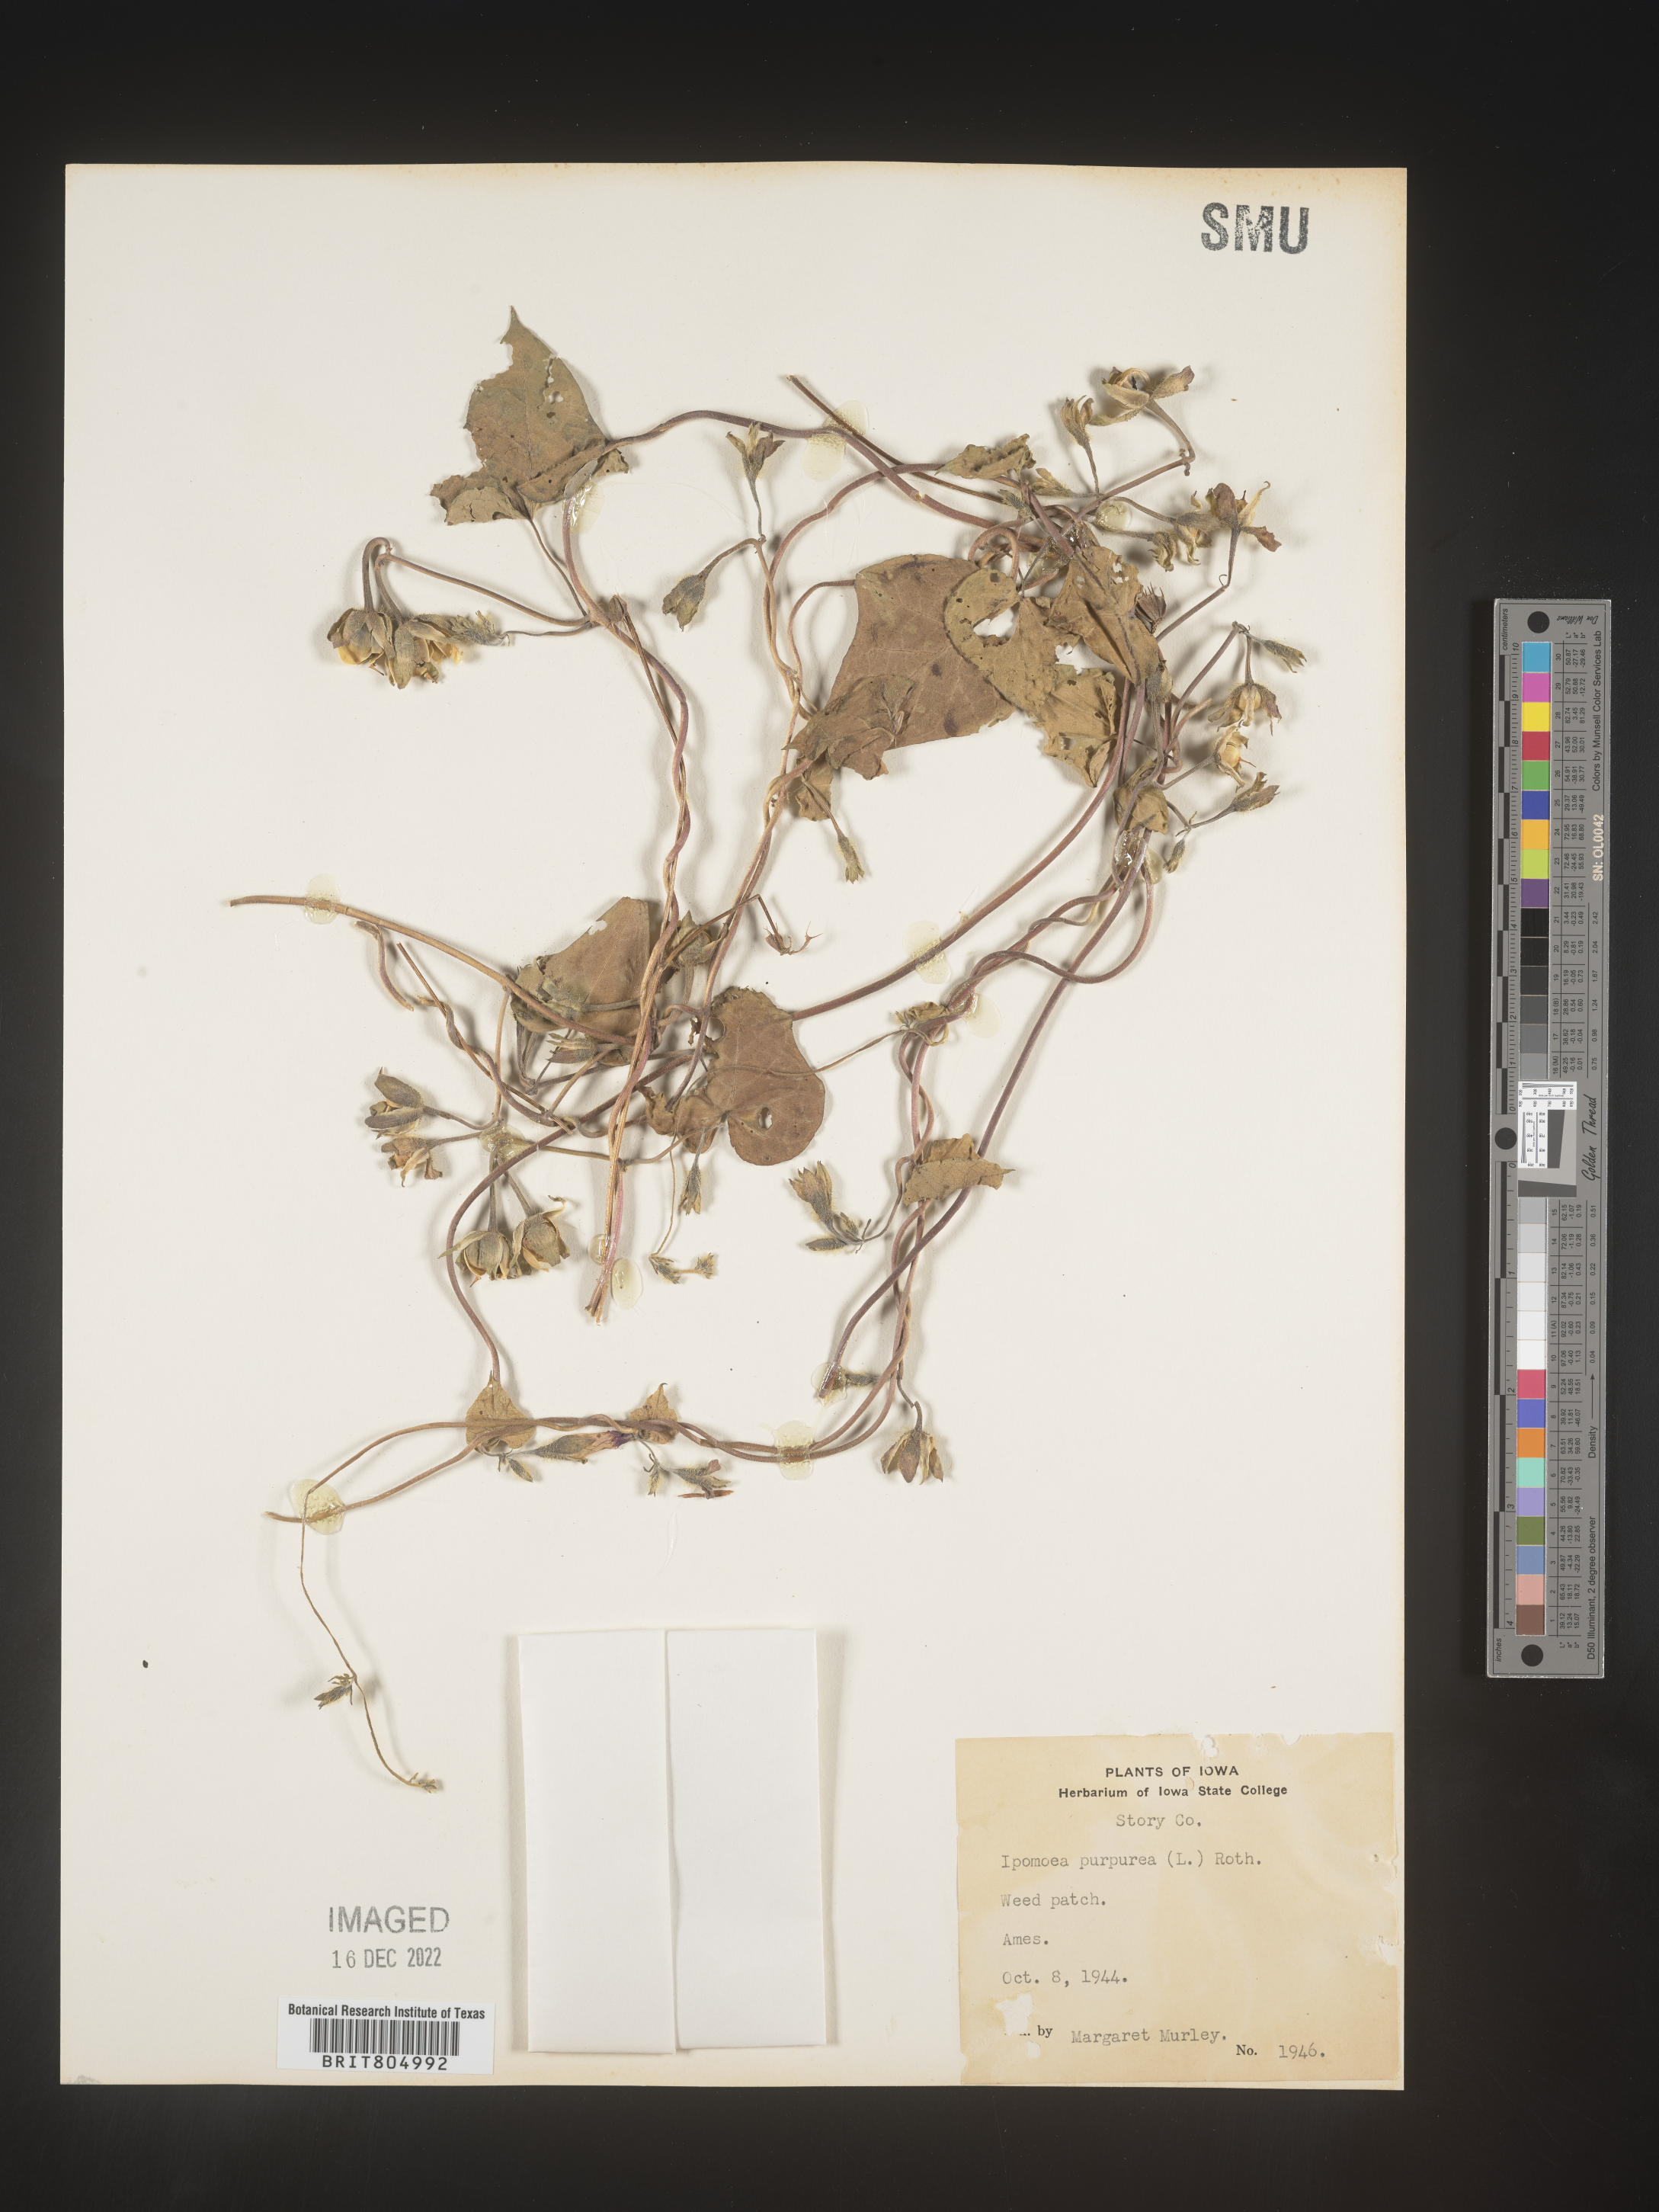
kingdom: Plantae
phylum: Tracheophyta
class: Magnoliopsida
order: Solanales
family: Convolvulaceae
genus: Ipomoea
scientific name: Ipomoea purpurea
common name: Common morning-glory
